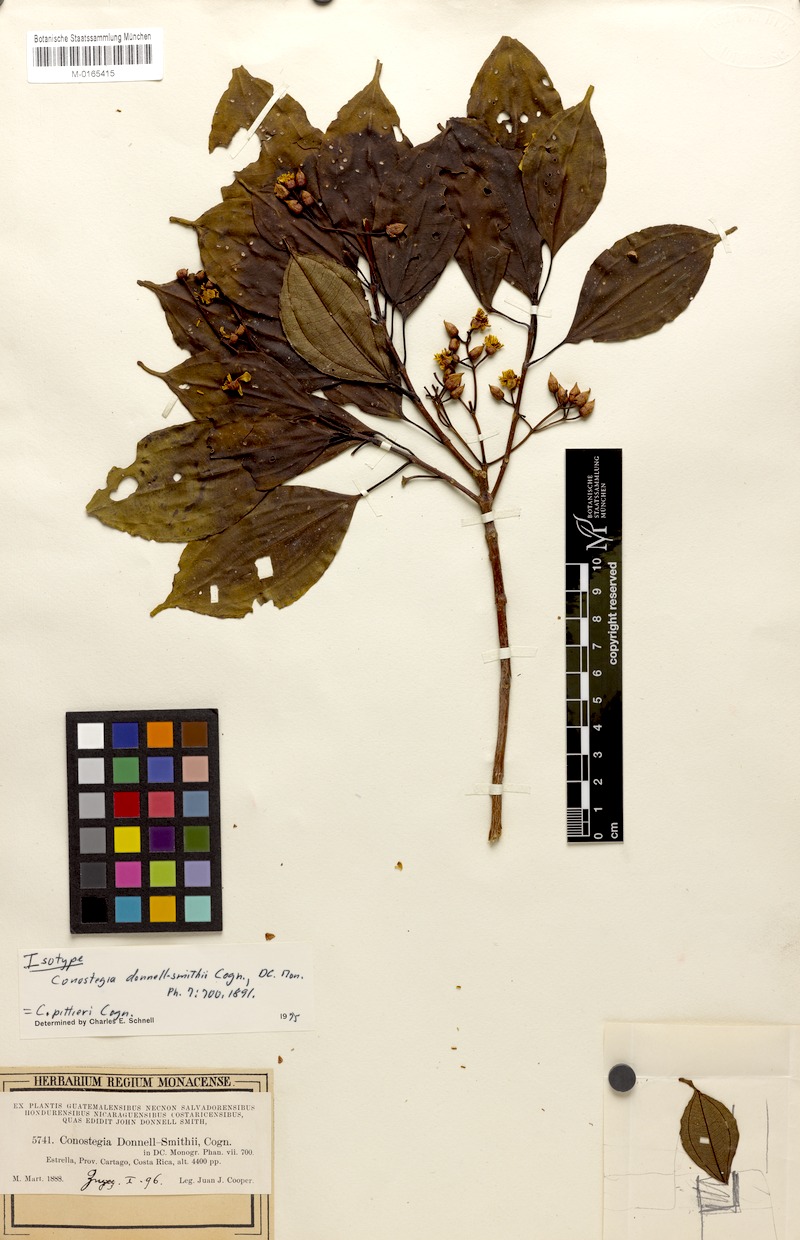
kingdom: Plantae
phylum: Tracheophyta
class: Magnoliopsida
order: Myrtales
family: Melastomataceae
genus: Miconia
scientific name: Miconia durandii
